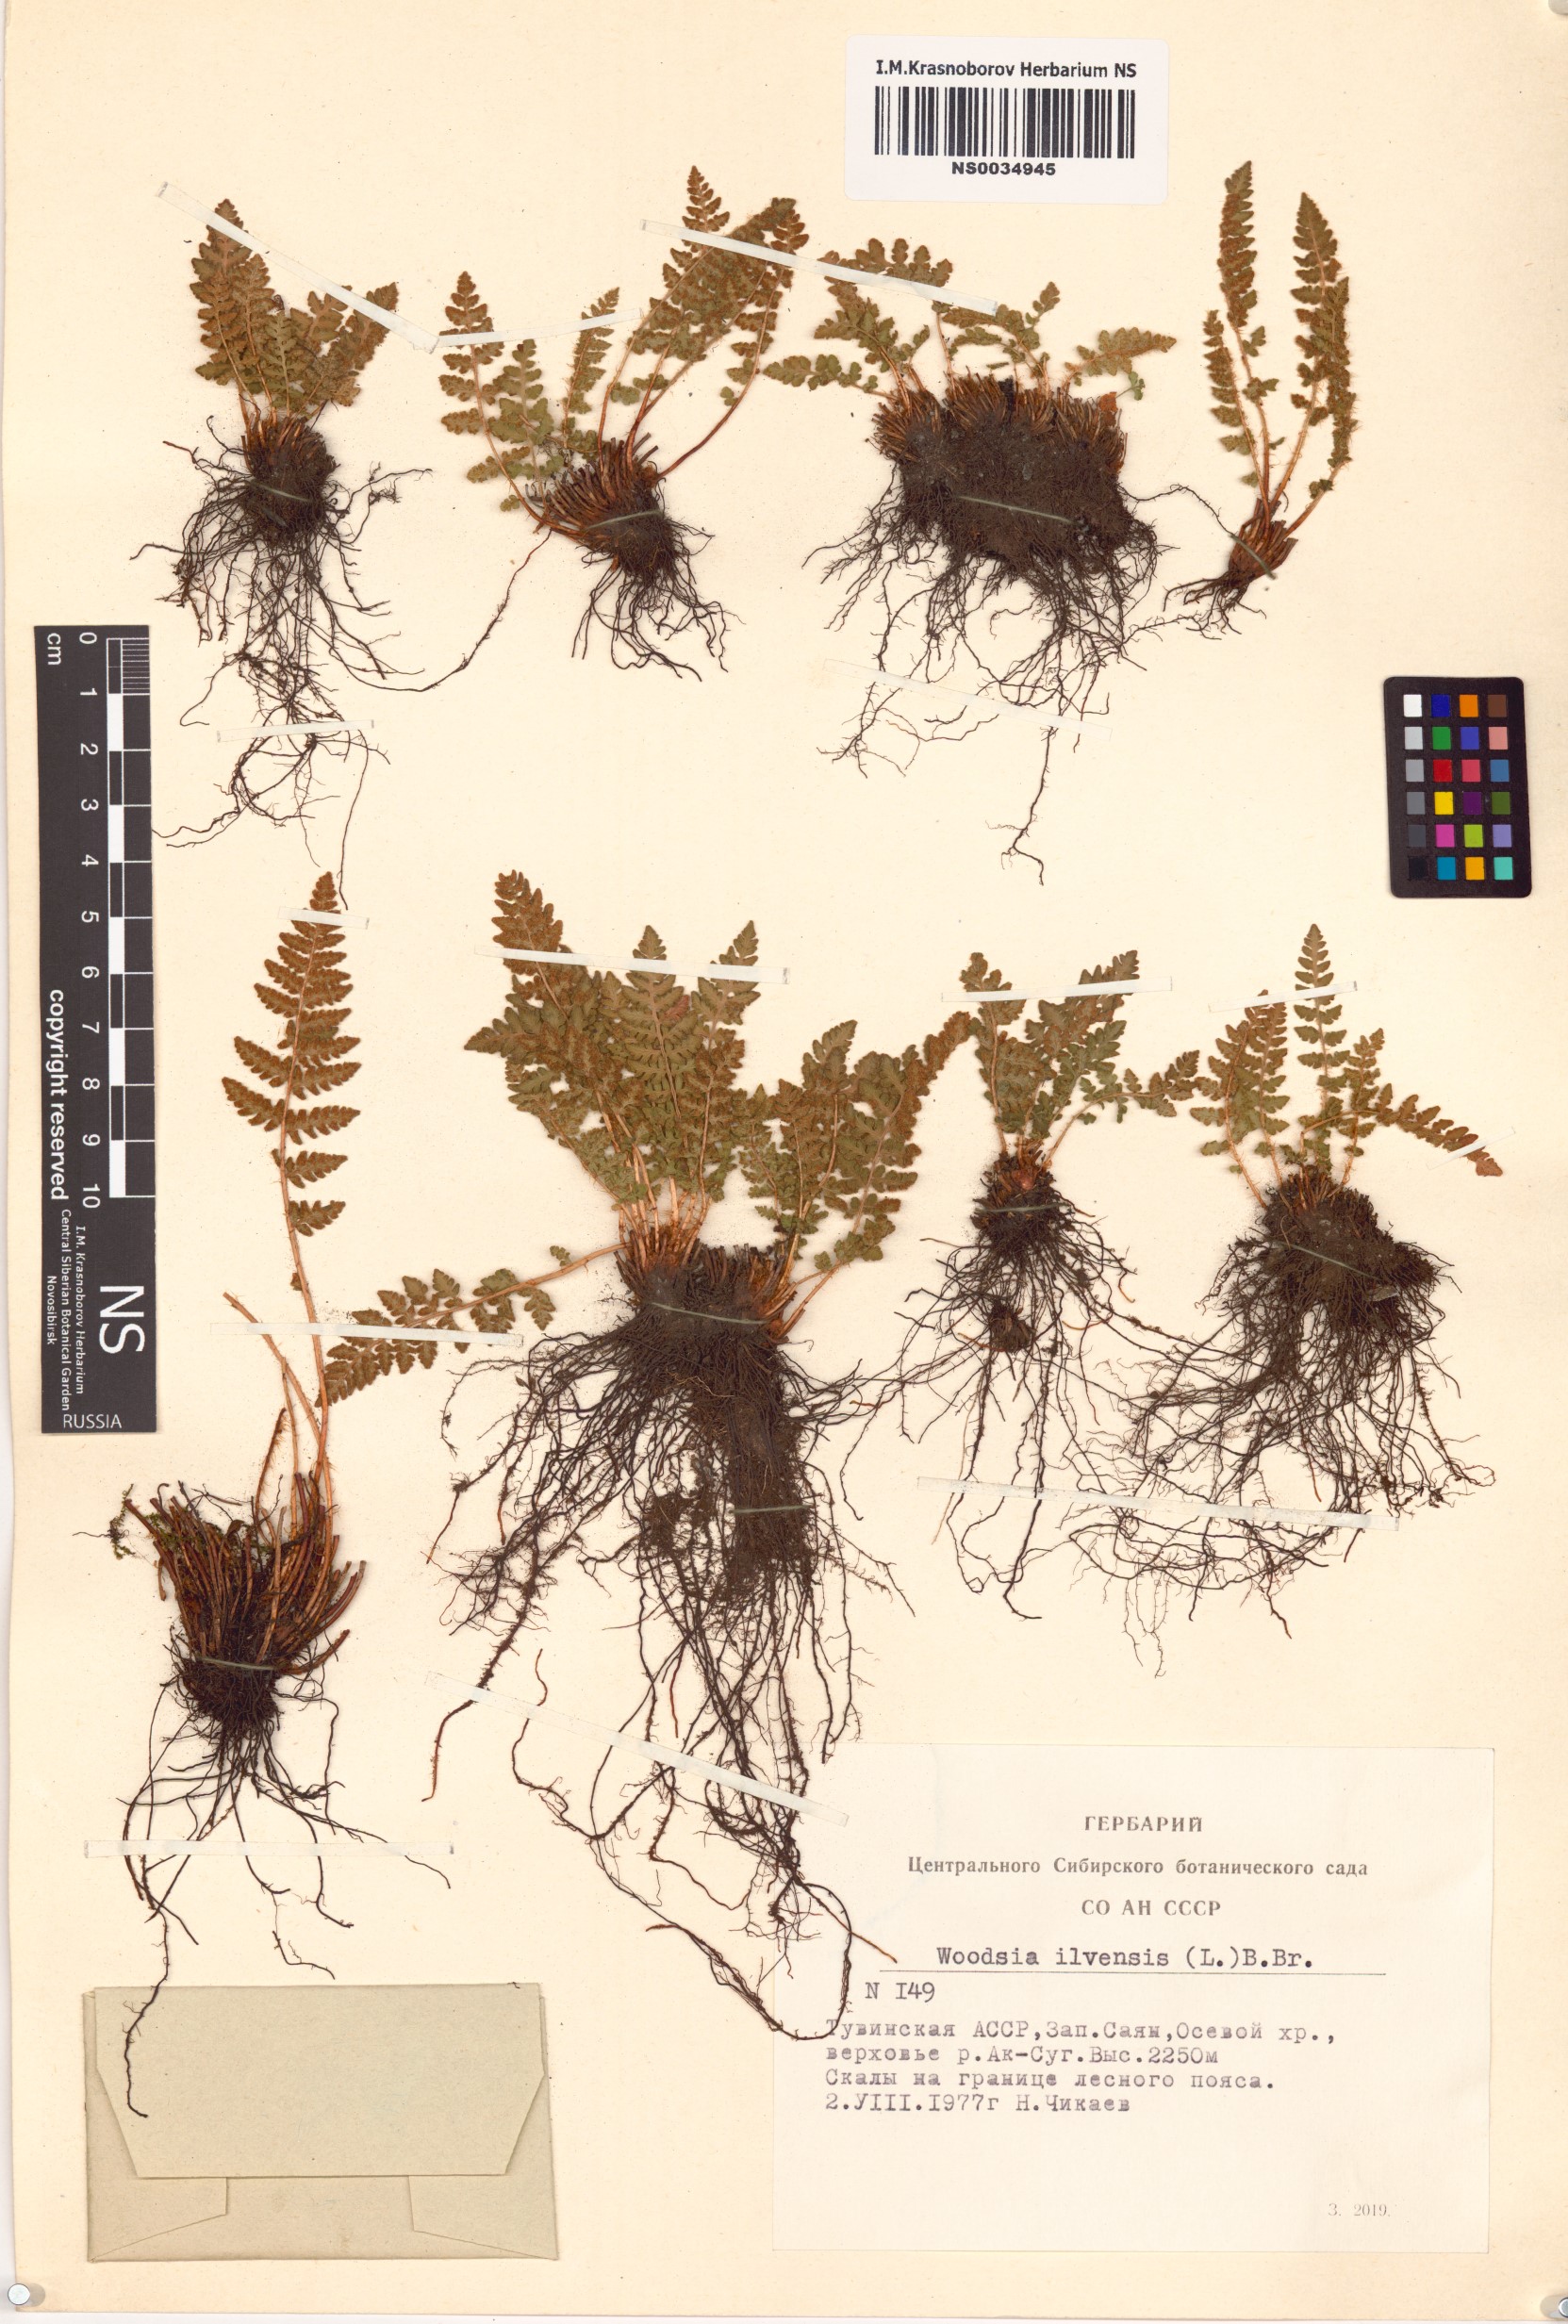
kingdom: Plantae
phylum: Tracheophyta
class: Polypodiopsida
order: Polypodiales
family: Woodsiaceae
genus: Woodsia
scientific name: Woodsia ilvensis
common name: Fragrant woodsia
